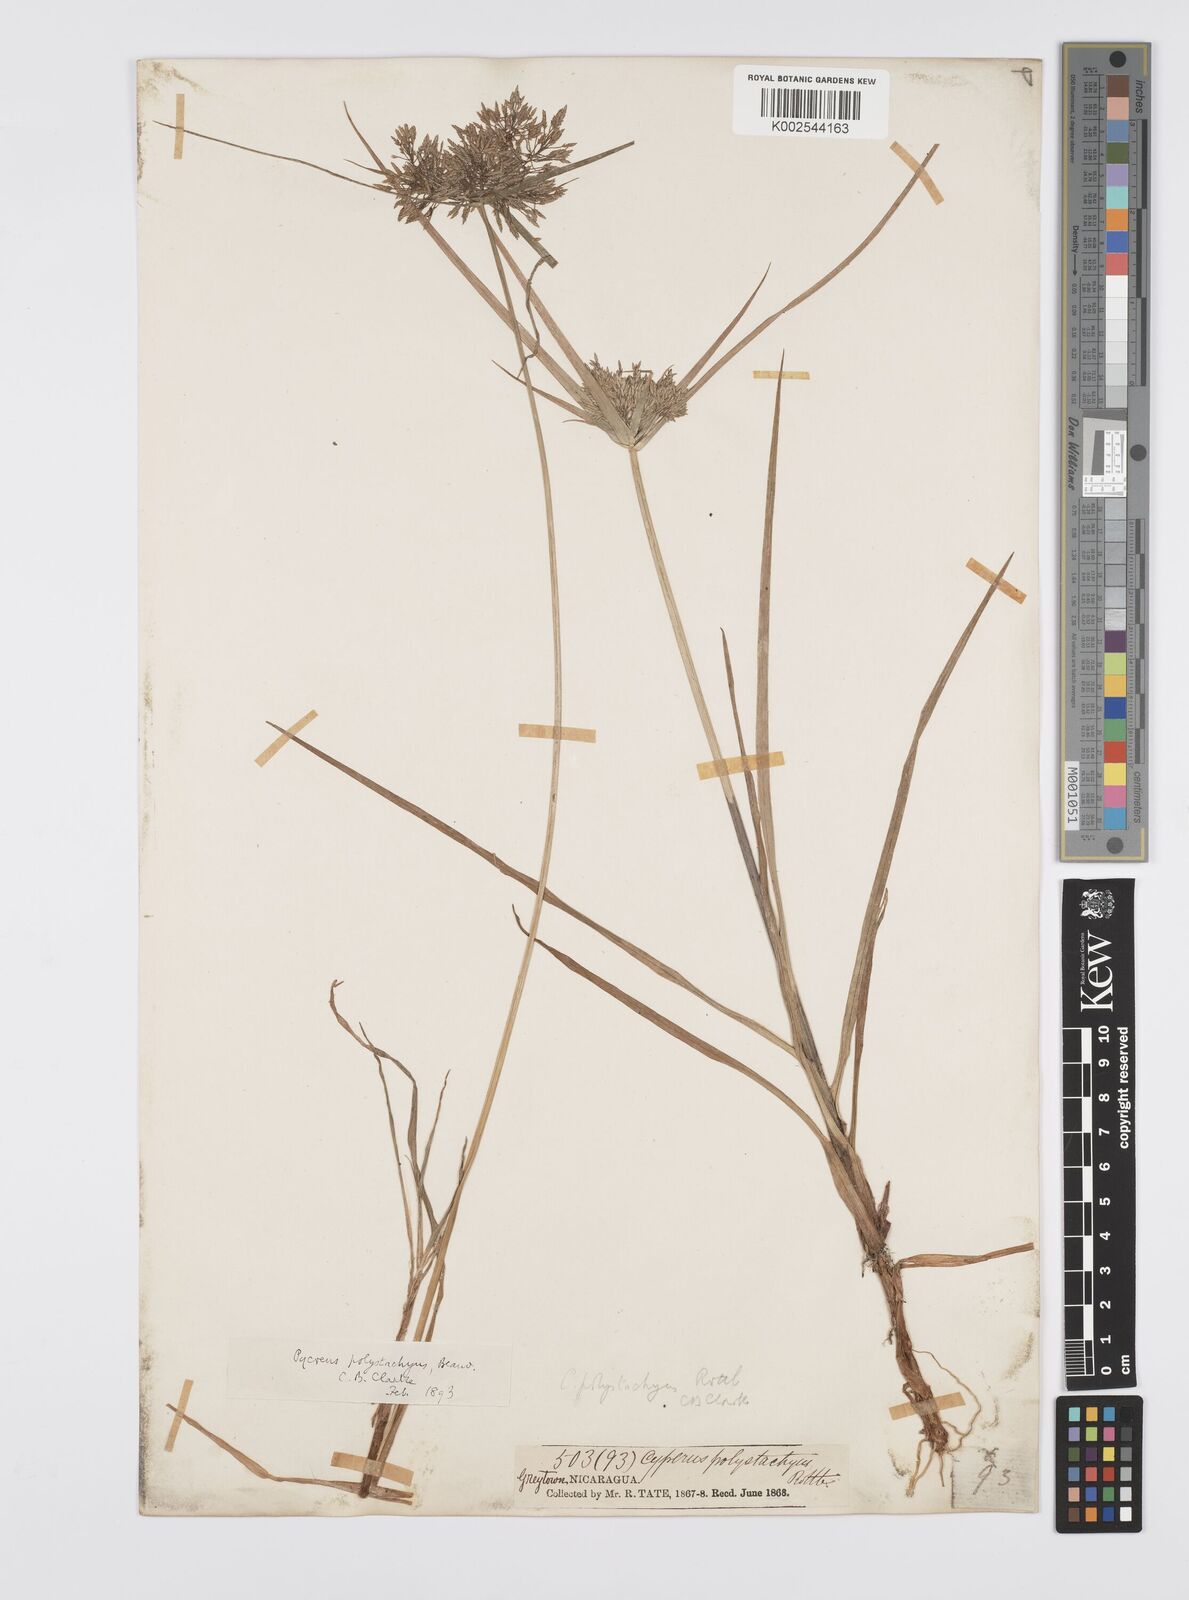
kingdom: Plantae
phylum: Tracheophyta
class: Liliopsida
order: Poales
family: Cyperaceae
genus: Cyperus
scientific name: Cyperus polystachyos
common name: Bunchy flat sedge
